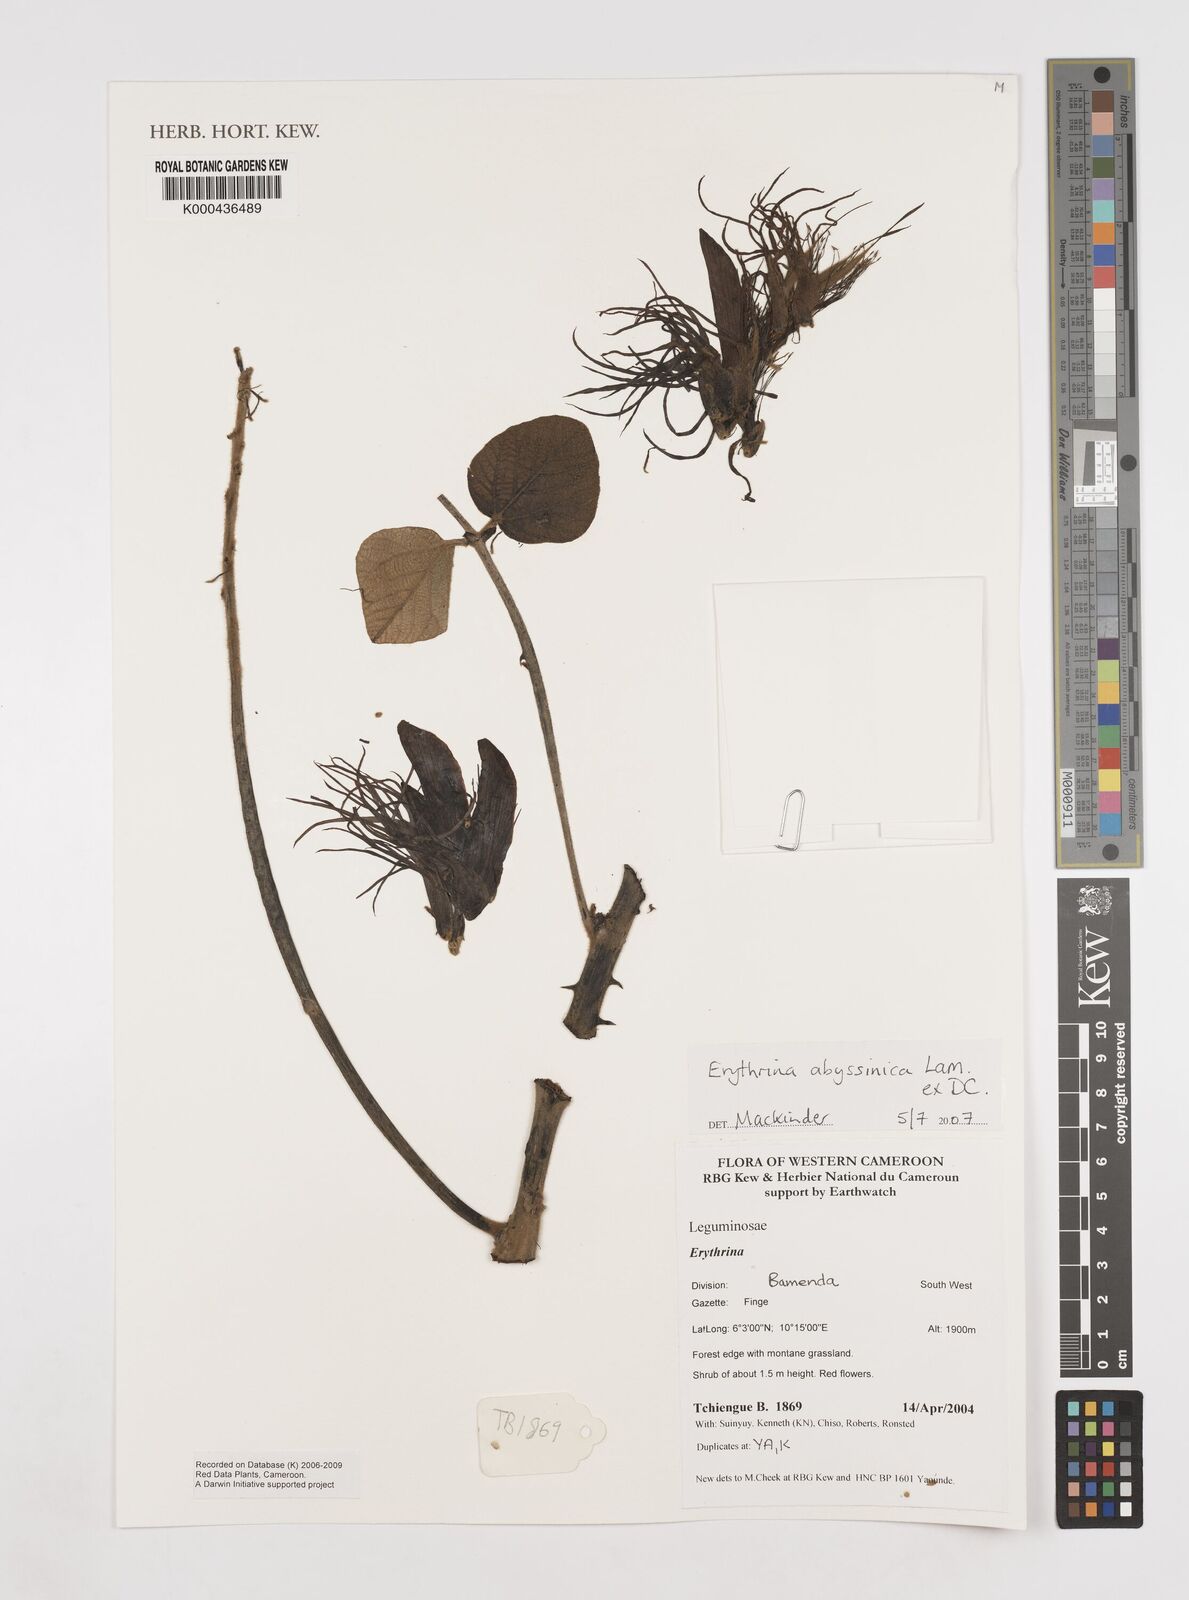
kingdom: Plantae
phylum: Tracheophyta
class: Magnoliopsida
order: Fabales
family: Fabaceae
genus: Erythrina
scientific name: Erythrina
